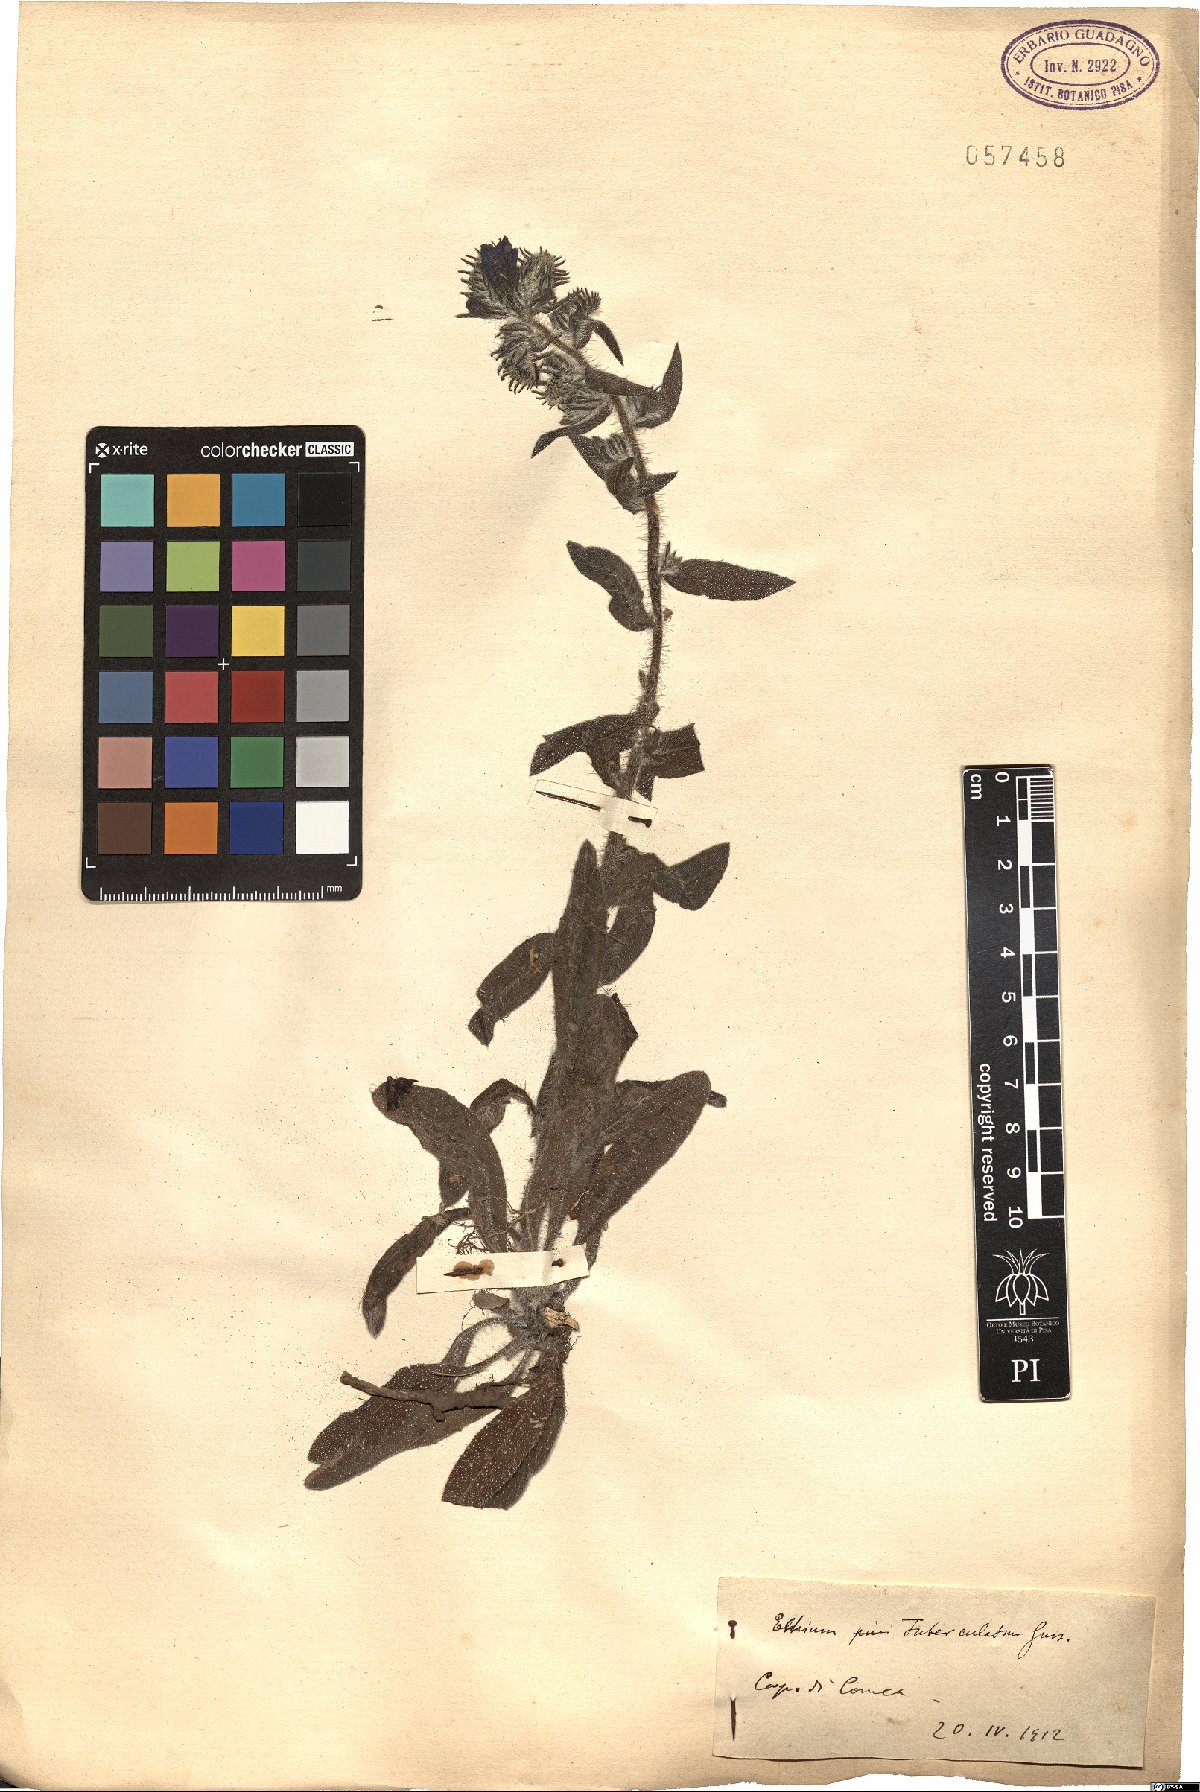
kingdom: Plantae
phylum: Tracheophyta
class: Magnoliopsida
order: Boraginales
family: Boraginaceae
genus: Echium
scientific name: Echium tuberculatum
